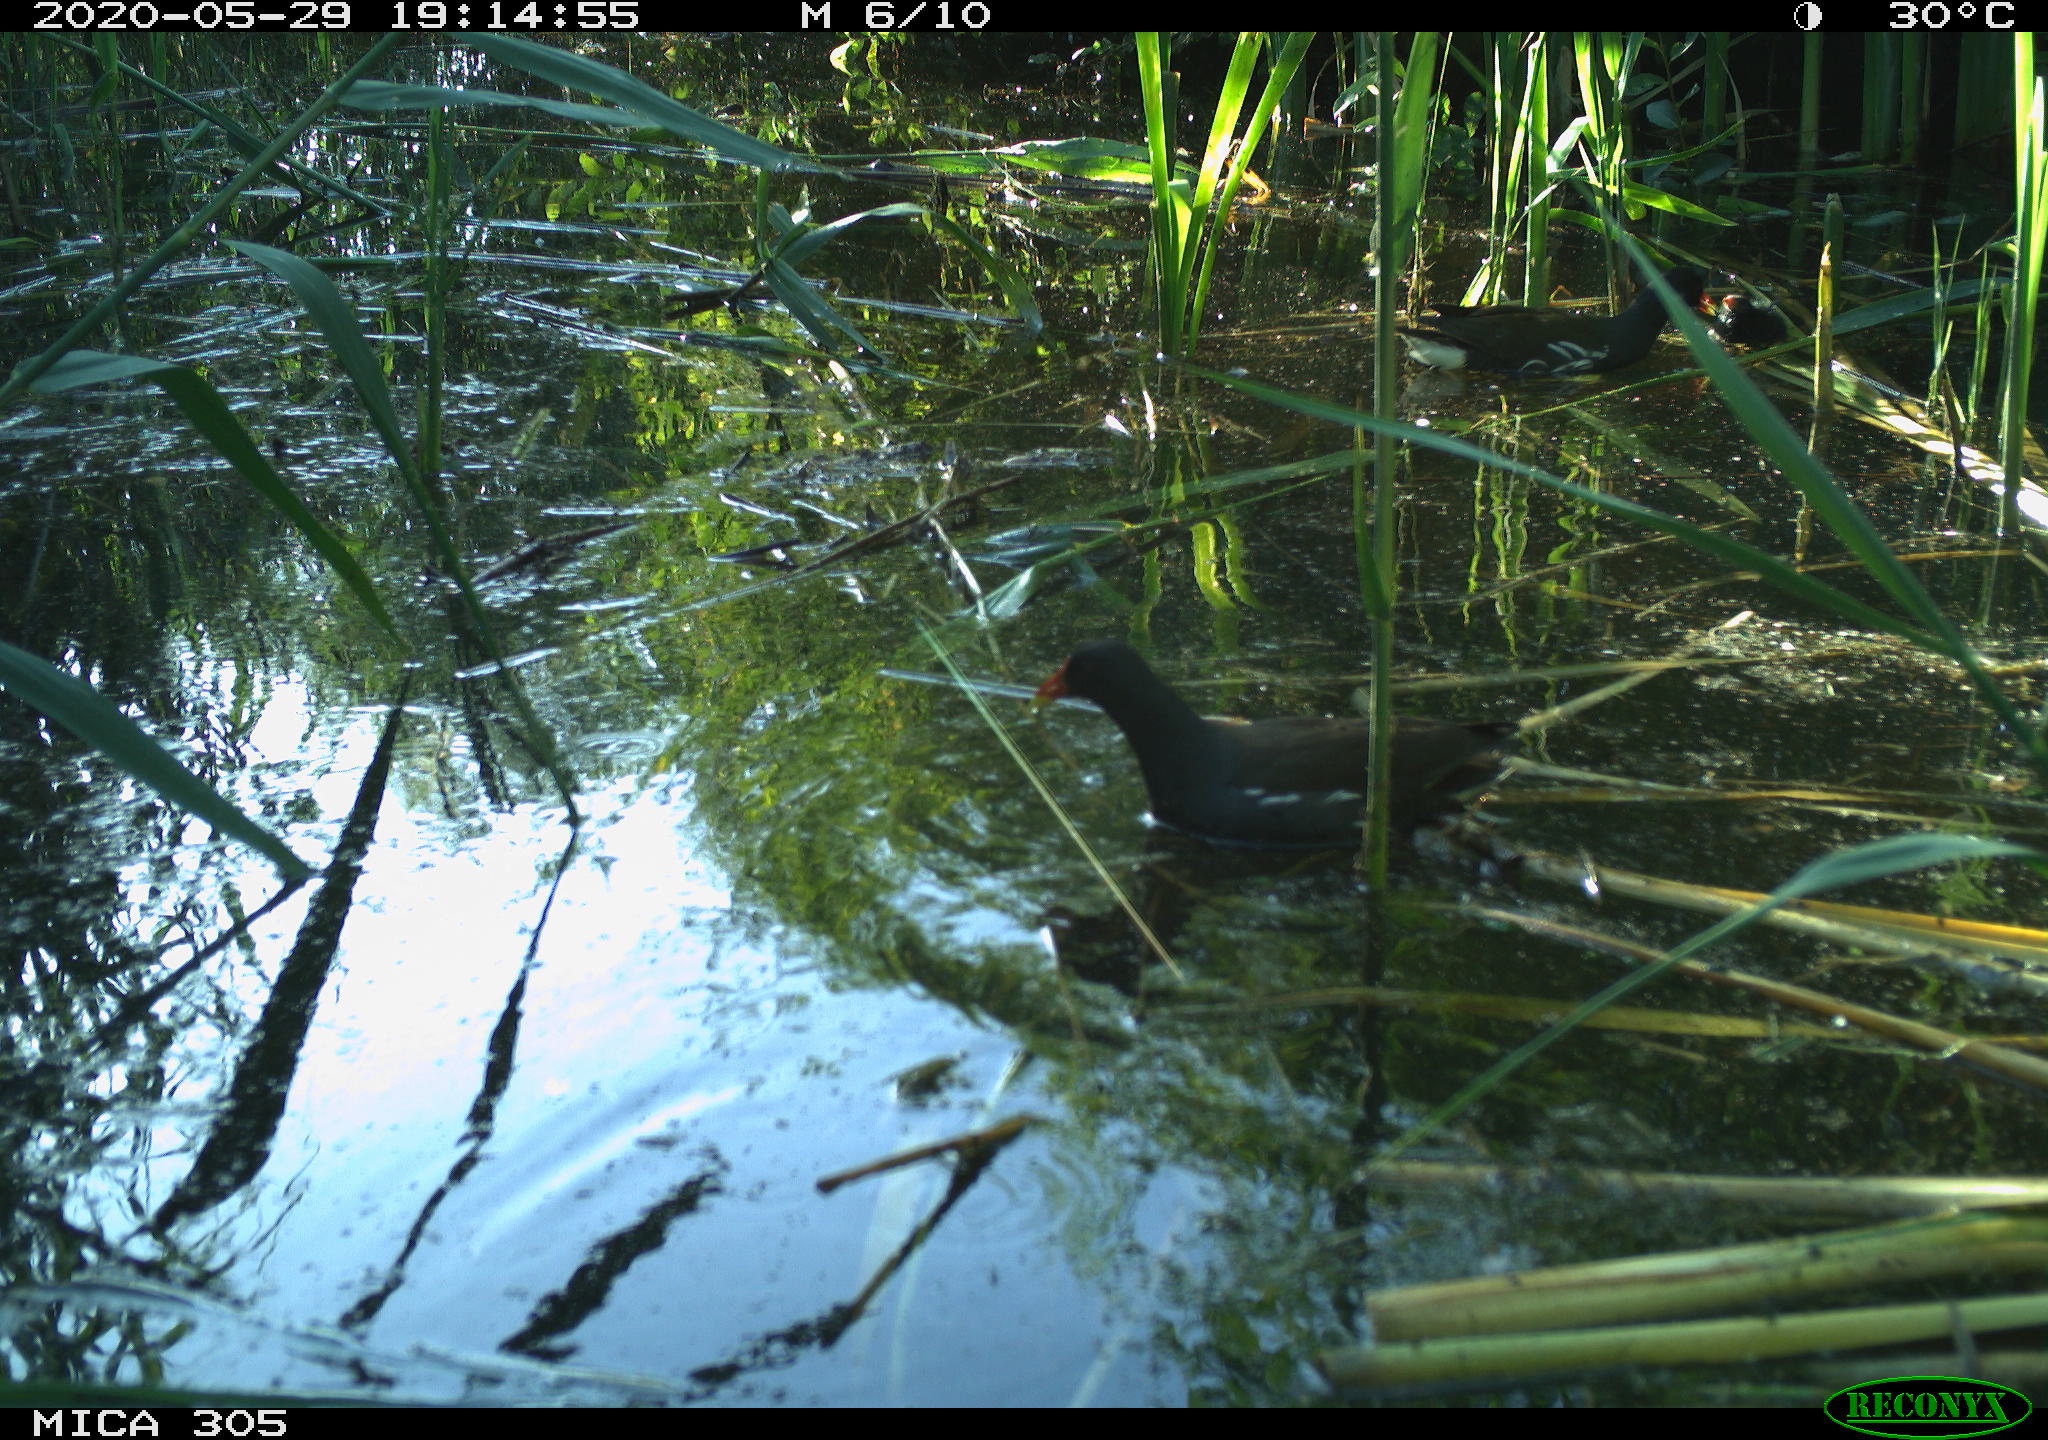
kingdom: Animalia
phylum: Chordata
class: Aves
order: Gruiformes
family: Rallidae
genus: Gallinula
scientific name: Gallinula chloropus
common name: Common moorhen
